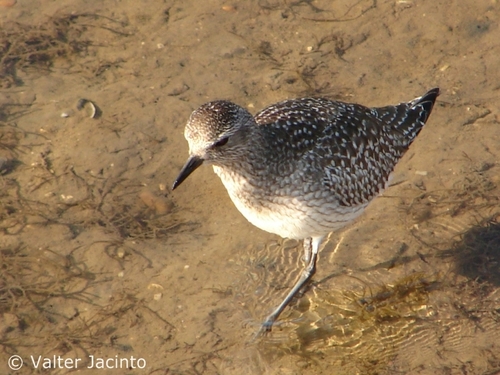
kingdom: Animalia
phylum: Chordata
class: Aves
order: Charadriiformes
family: Charadriidae
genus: Pluvialis
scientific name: Pluvialis squatarola
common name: Grey plover
